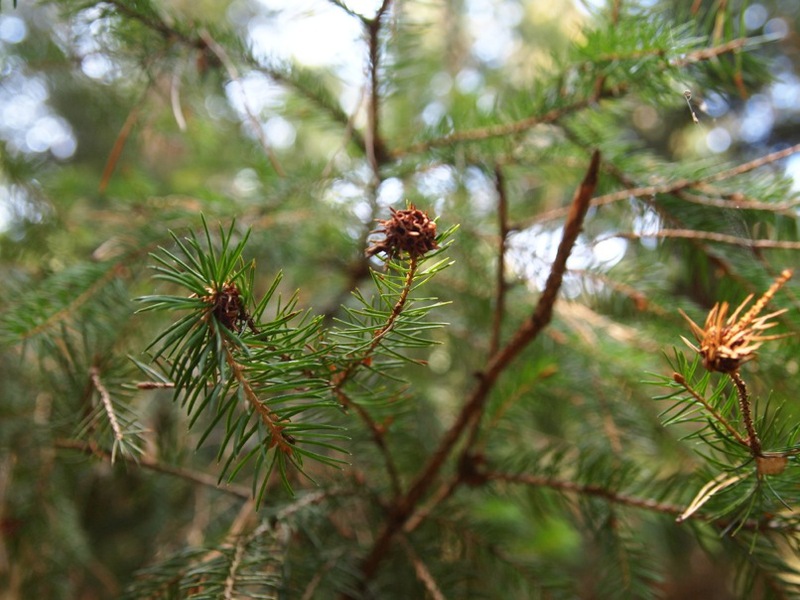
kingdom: Animalia
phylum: Arthropoda
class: Insecta
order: Hemiptera
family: Adelgidae
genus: Adelges
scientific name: Adelges viridis
